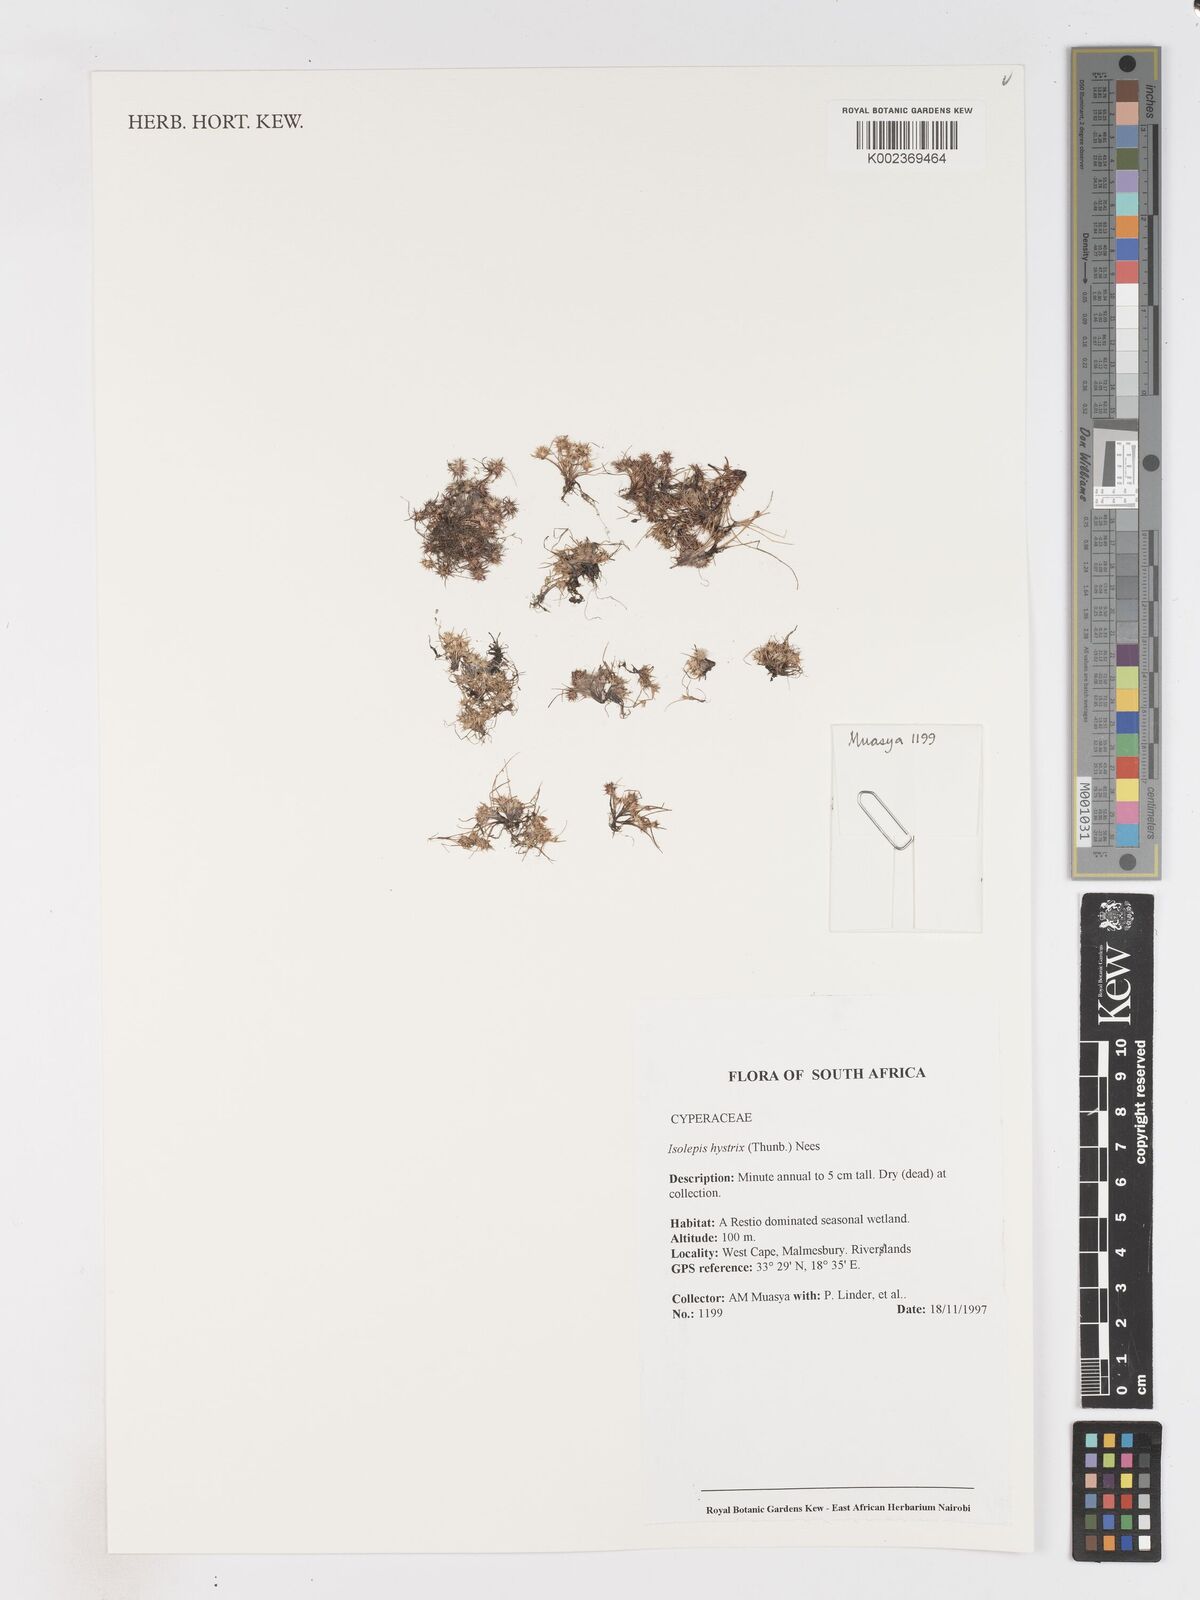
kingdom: Plantae
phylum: Tracheophyta
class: Liliopsida
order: Poales
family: Cyperaceae
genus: Isolepis
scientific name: Isolepis hystrix
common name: Bottlebrush bulrush
